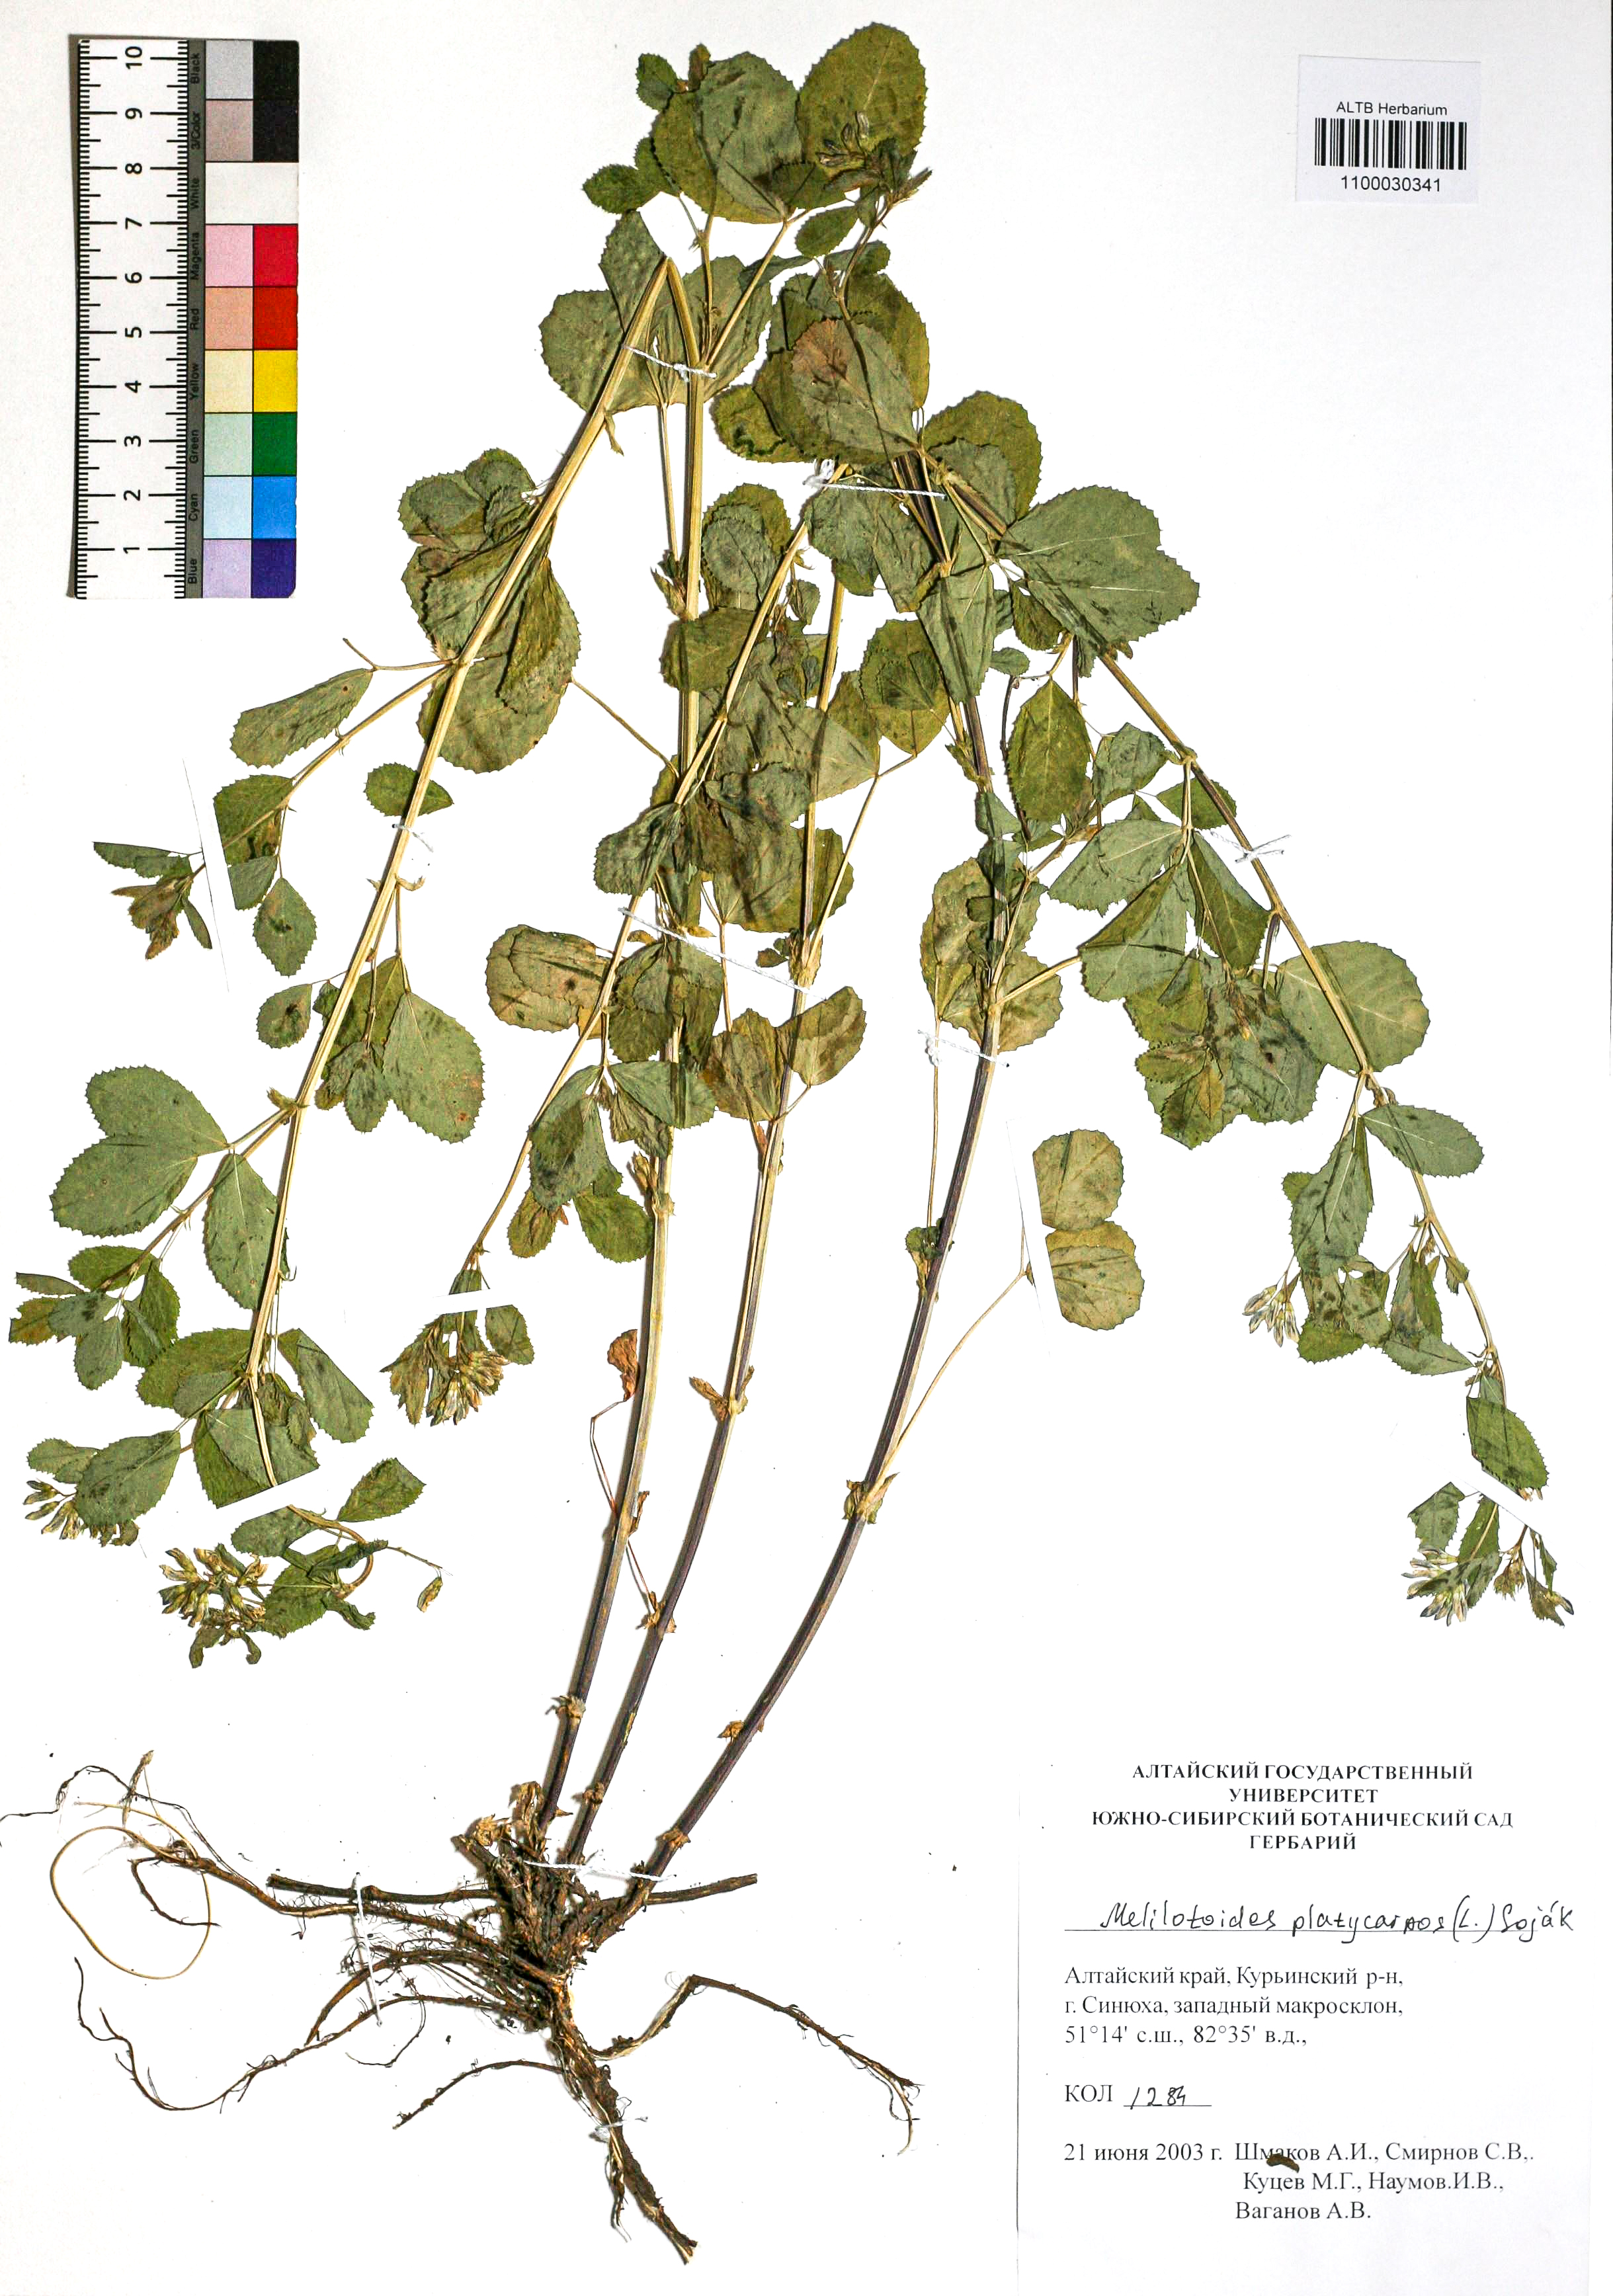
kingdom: Plantae
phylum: Tracheophyta
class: Magnoliopsida
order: Fabales
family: Fabaceae
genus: Medicago
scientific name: Medicago platycarpos
